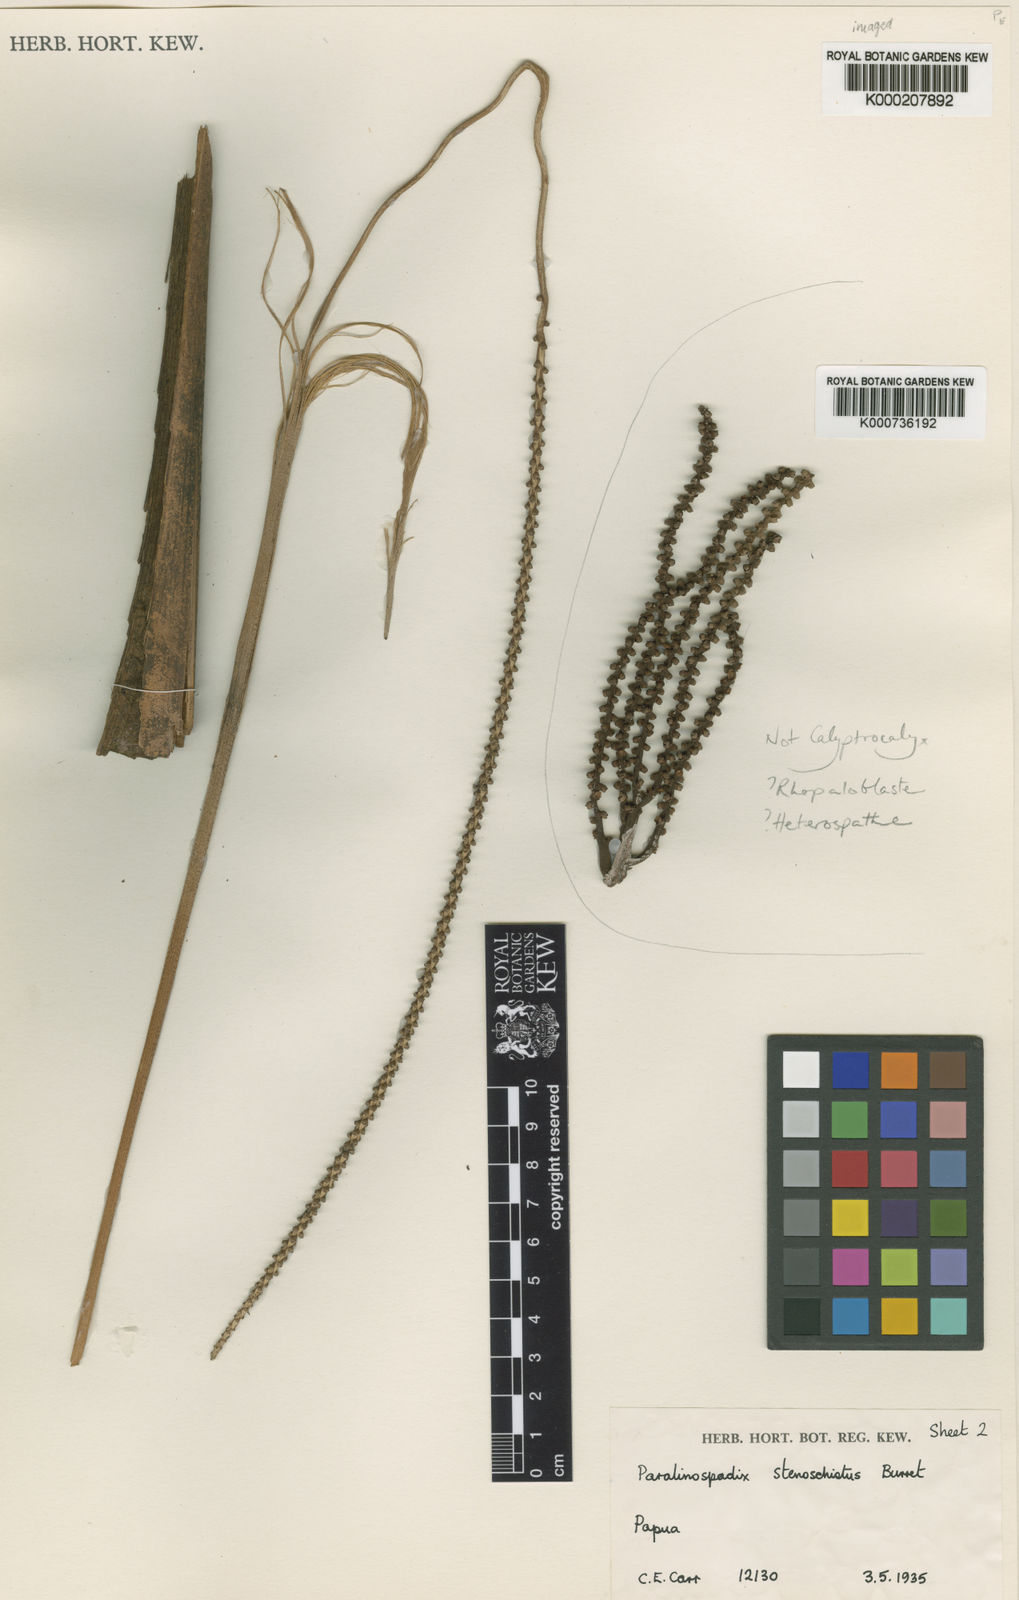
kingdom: Plantae
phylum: Tracheophyta
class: Liliopsida
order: Arecales
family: Arecaceae
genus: Calyptrocalyx
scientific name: Calyptrocalyx forbesii
